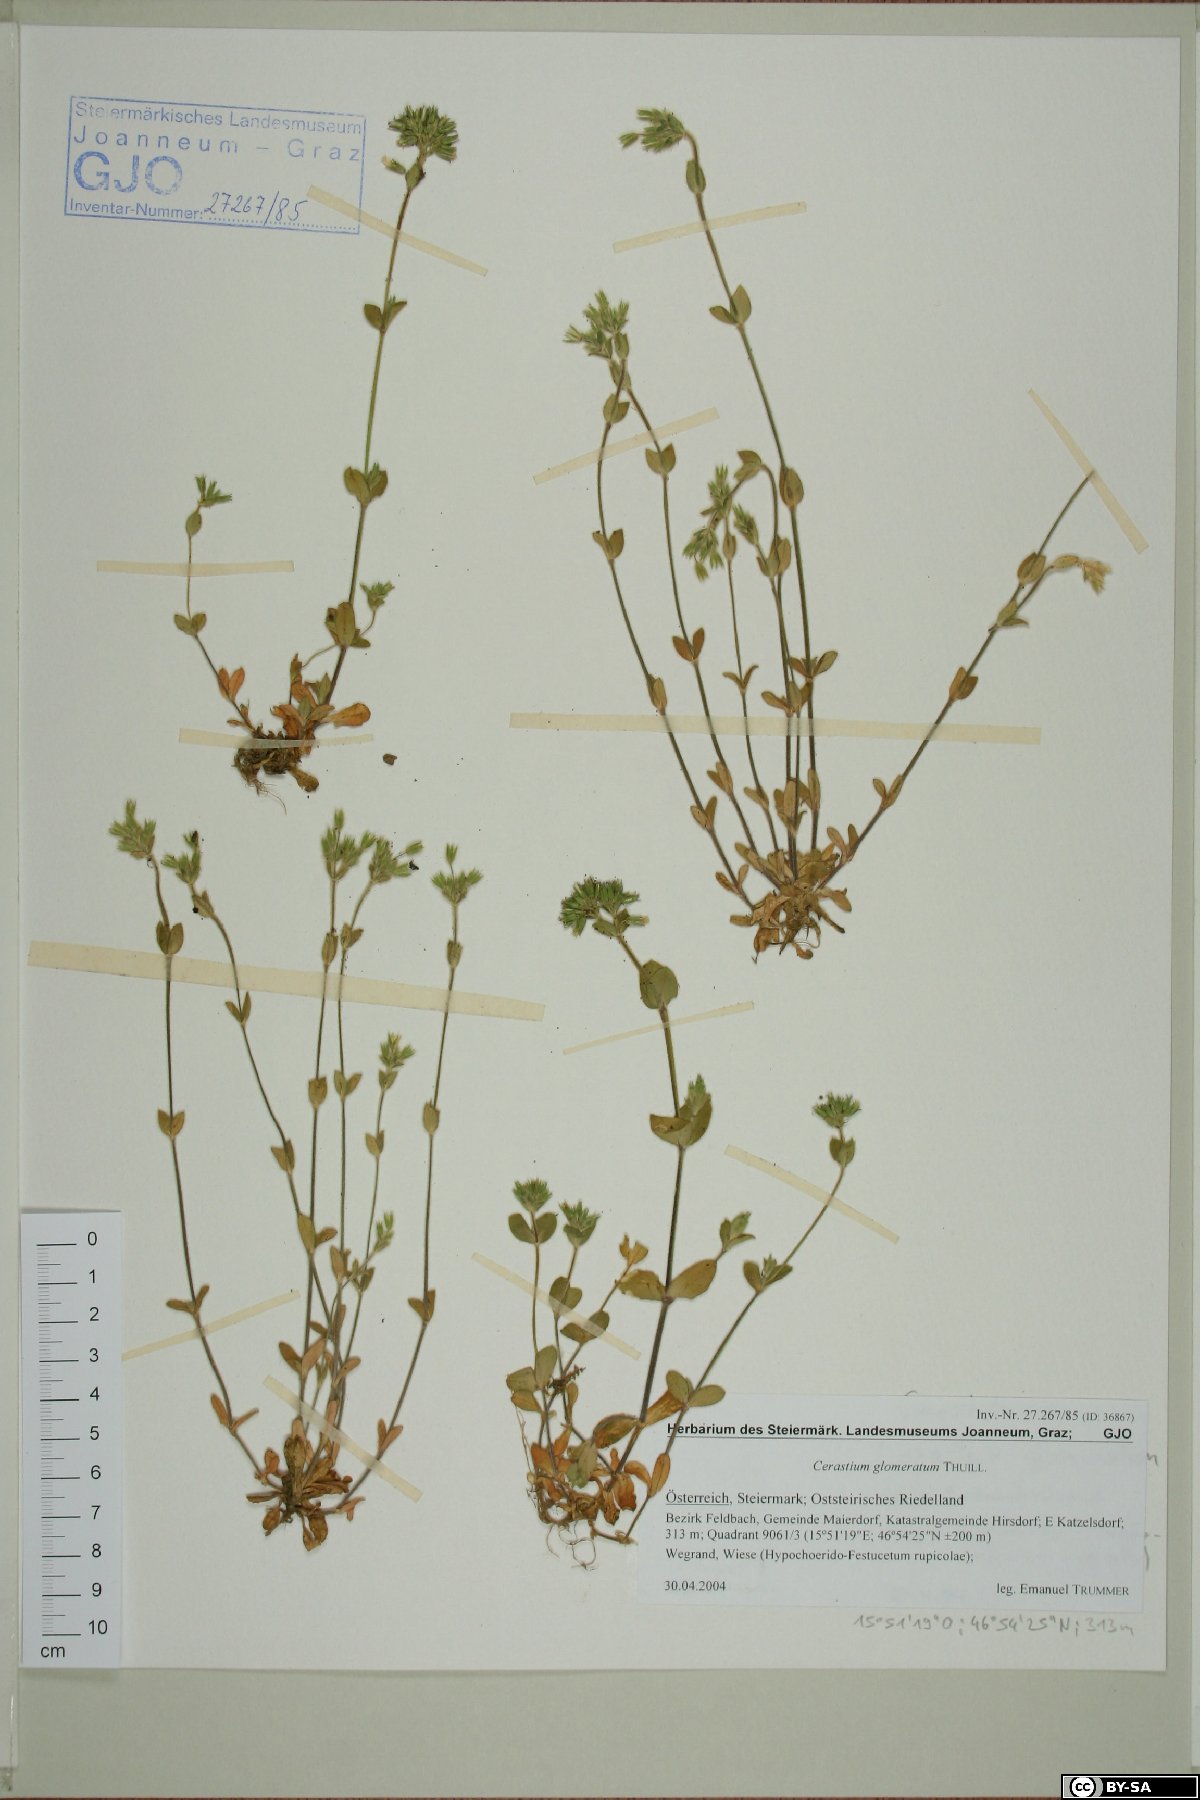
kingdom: Plantae
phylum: Tracheophyta
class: Magnoliopsida
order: Caryophyllales
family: Caryophyllaceae
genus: Cerastium
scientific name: Cerastium glomeratum
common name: Sticky chickweed
